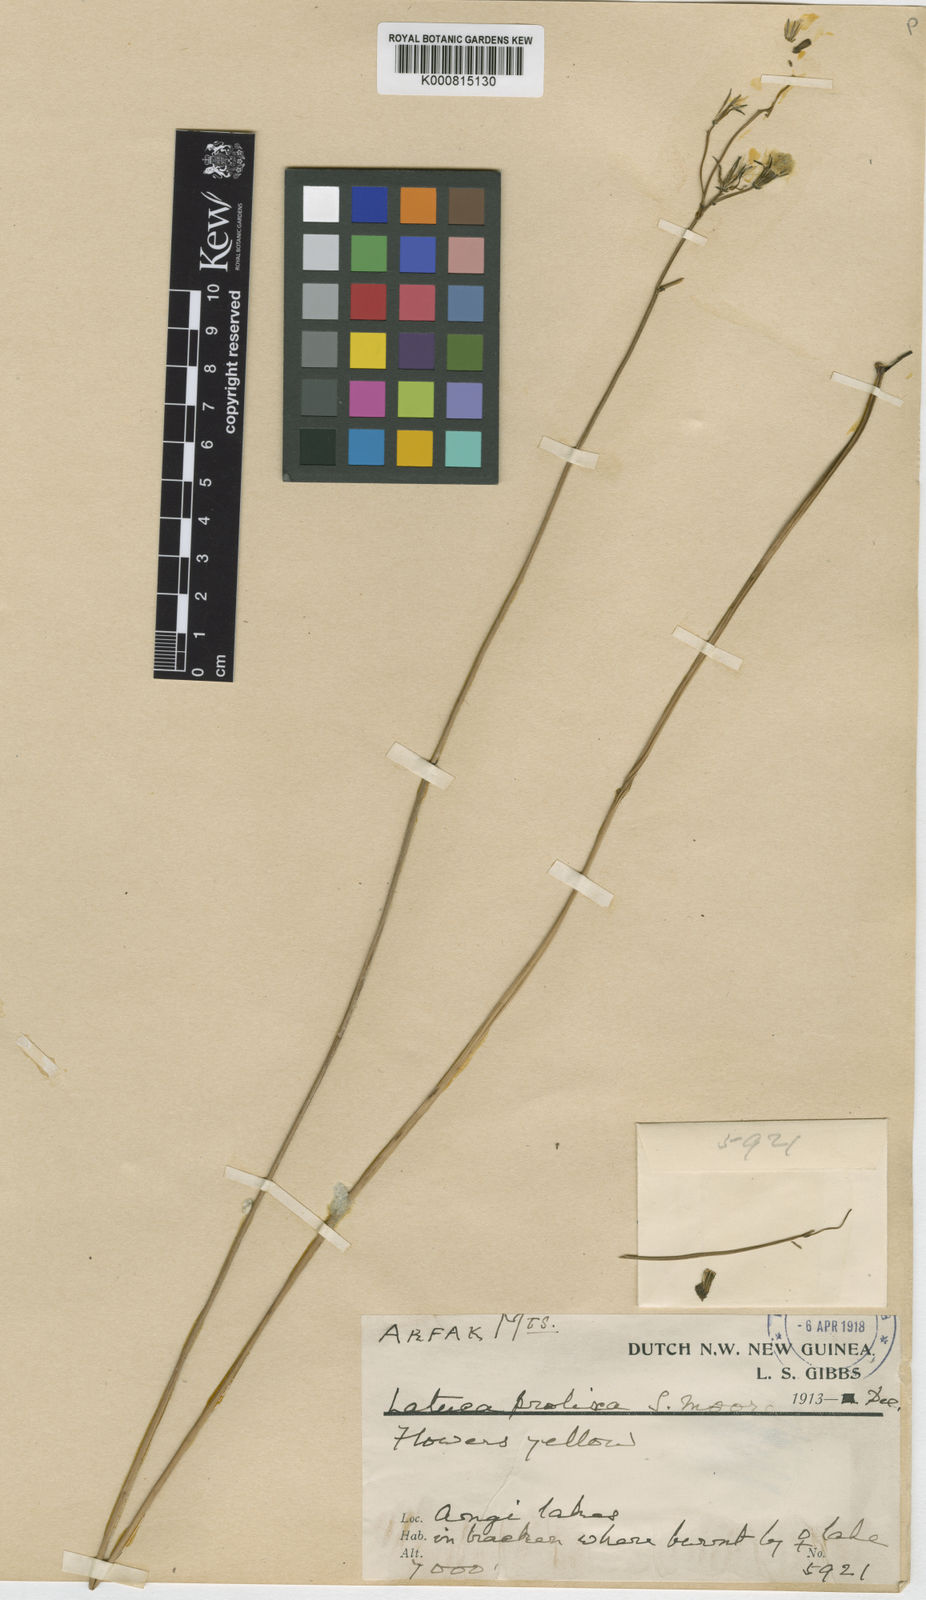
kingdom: Plantae
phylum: Tracheophyta
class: Magnoliopsida
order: Asterales
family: Asteraceae
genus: Ixeridium
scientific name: Ixeridium laevigatum
